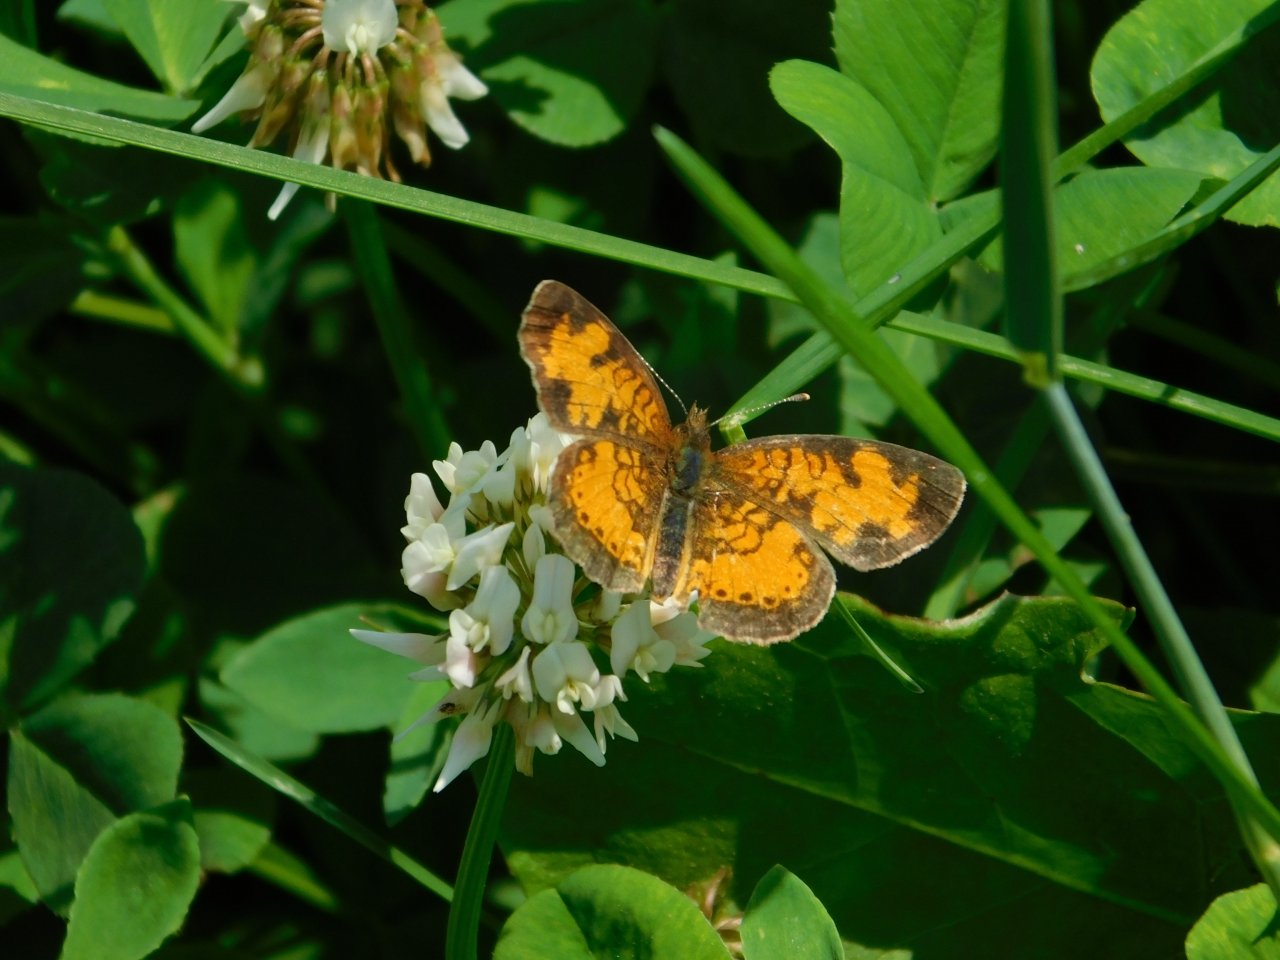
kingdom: Animalia
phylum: Arthropoda
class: Insecta
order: Lepidoptera
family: Nymphalidae
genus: Phyciodes
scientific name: Phyciodes tharos
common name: Northern Crescent
